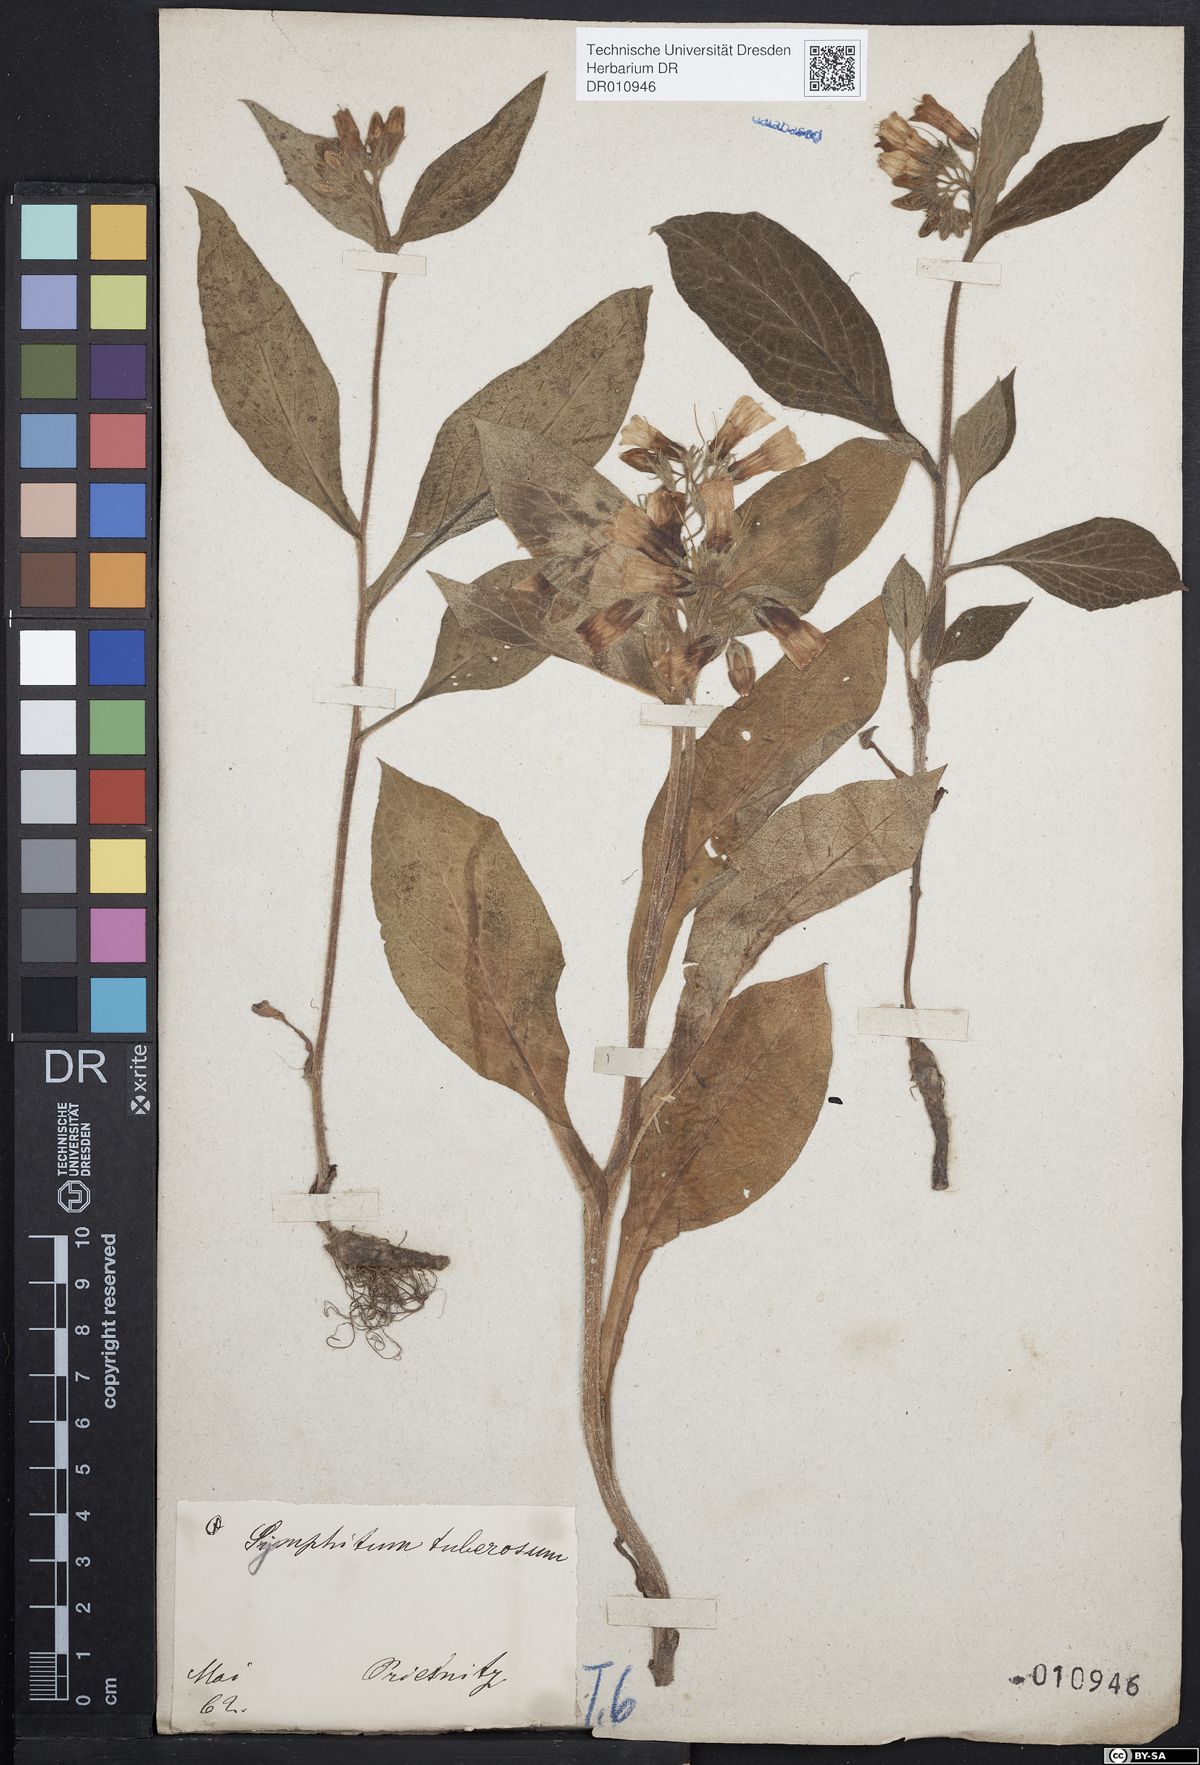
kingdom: Plantae
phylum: Tracheophyta
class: Magnoliopsida
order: Boraginales
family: Boraginaceae
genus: Symphytum
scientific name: Symphytum tuberosum
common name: Tuberous comfrey
